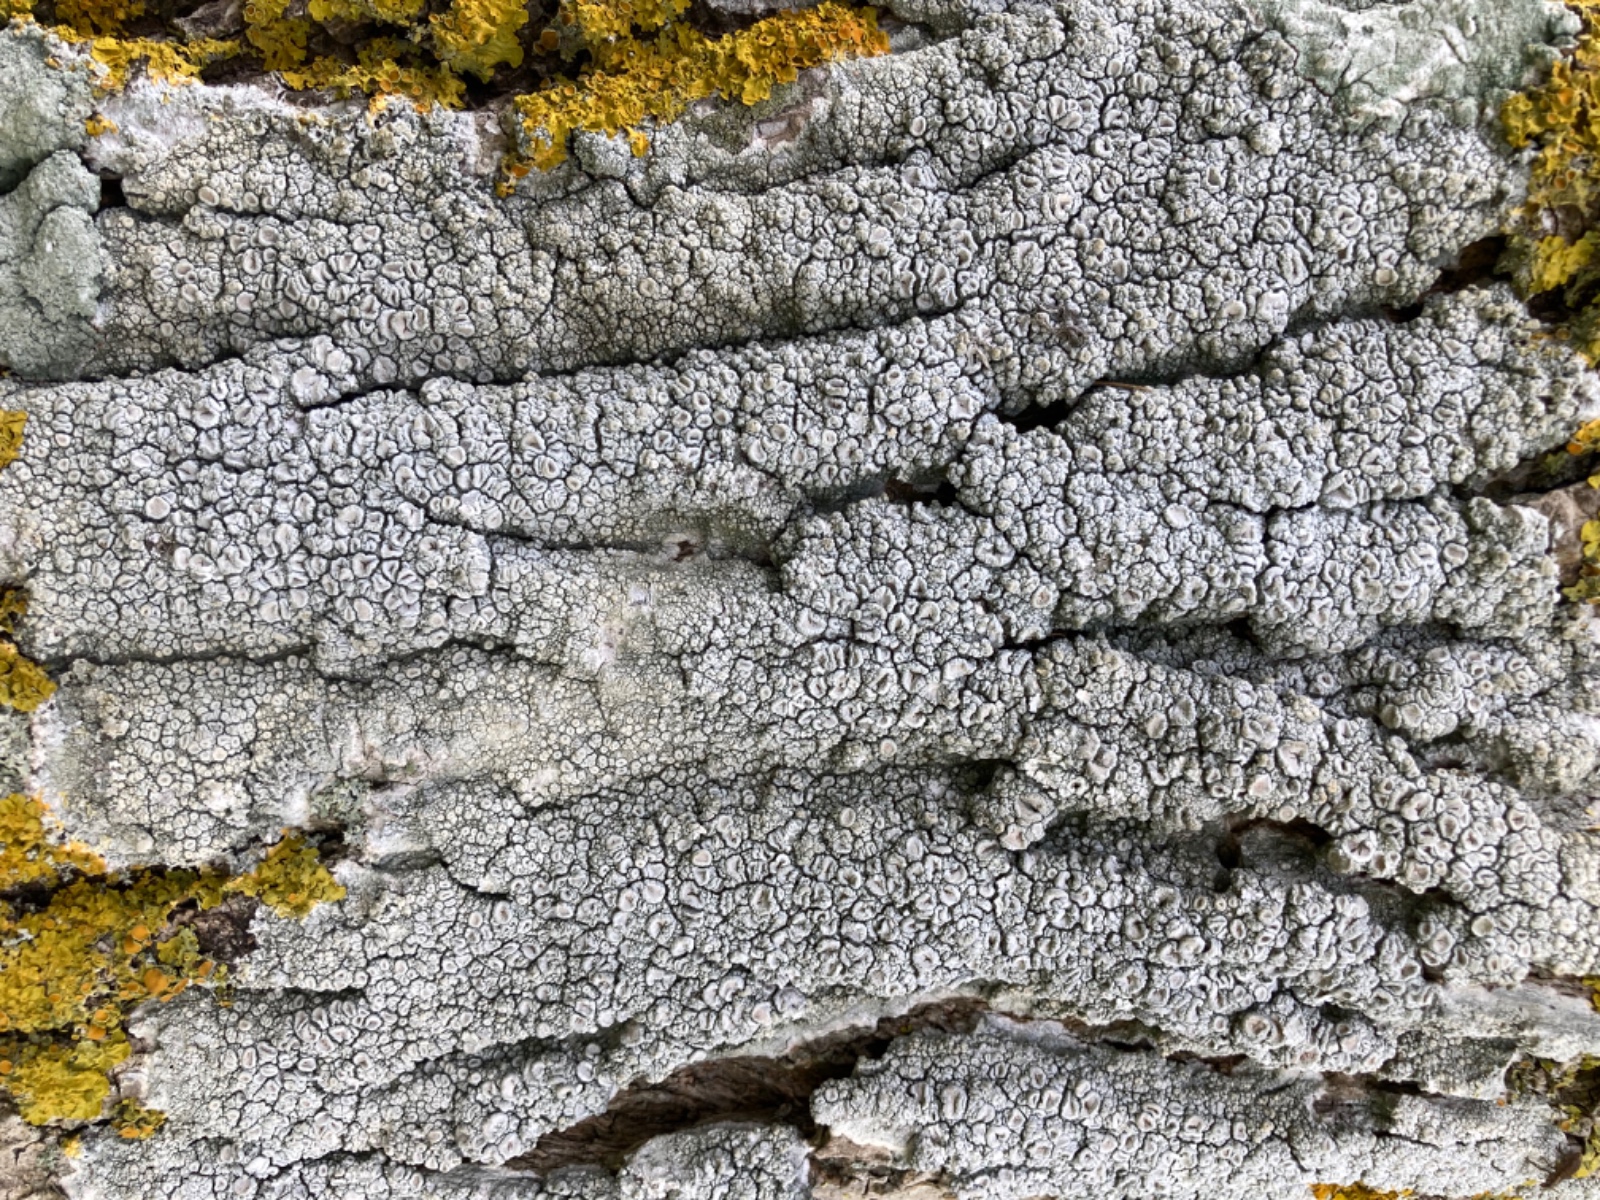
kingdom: Fungi
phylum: Ascomycota
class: Lecanoromycetes
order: Pertusariales
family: Ochrolechiaceae
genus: Ochrolechia
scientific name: Ochrolechia parella
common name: almindelig blegskivelav
